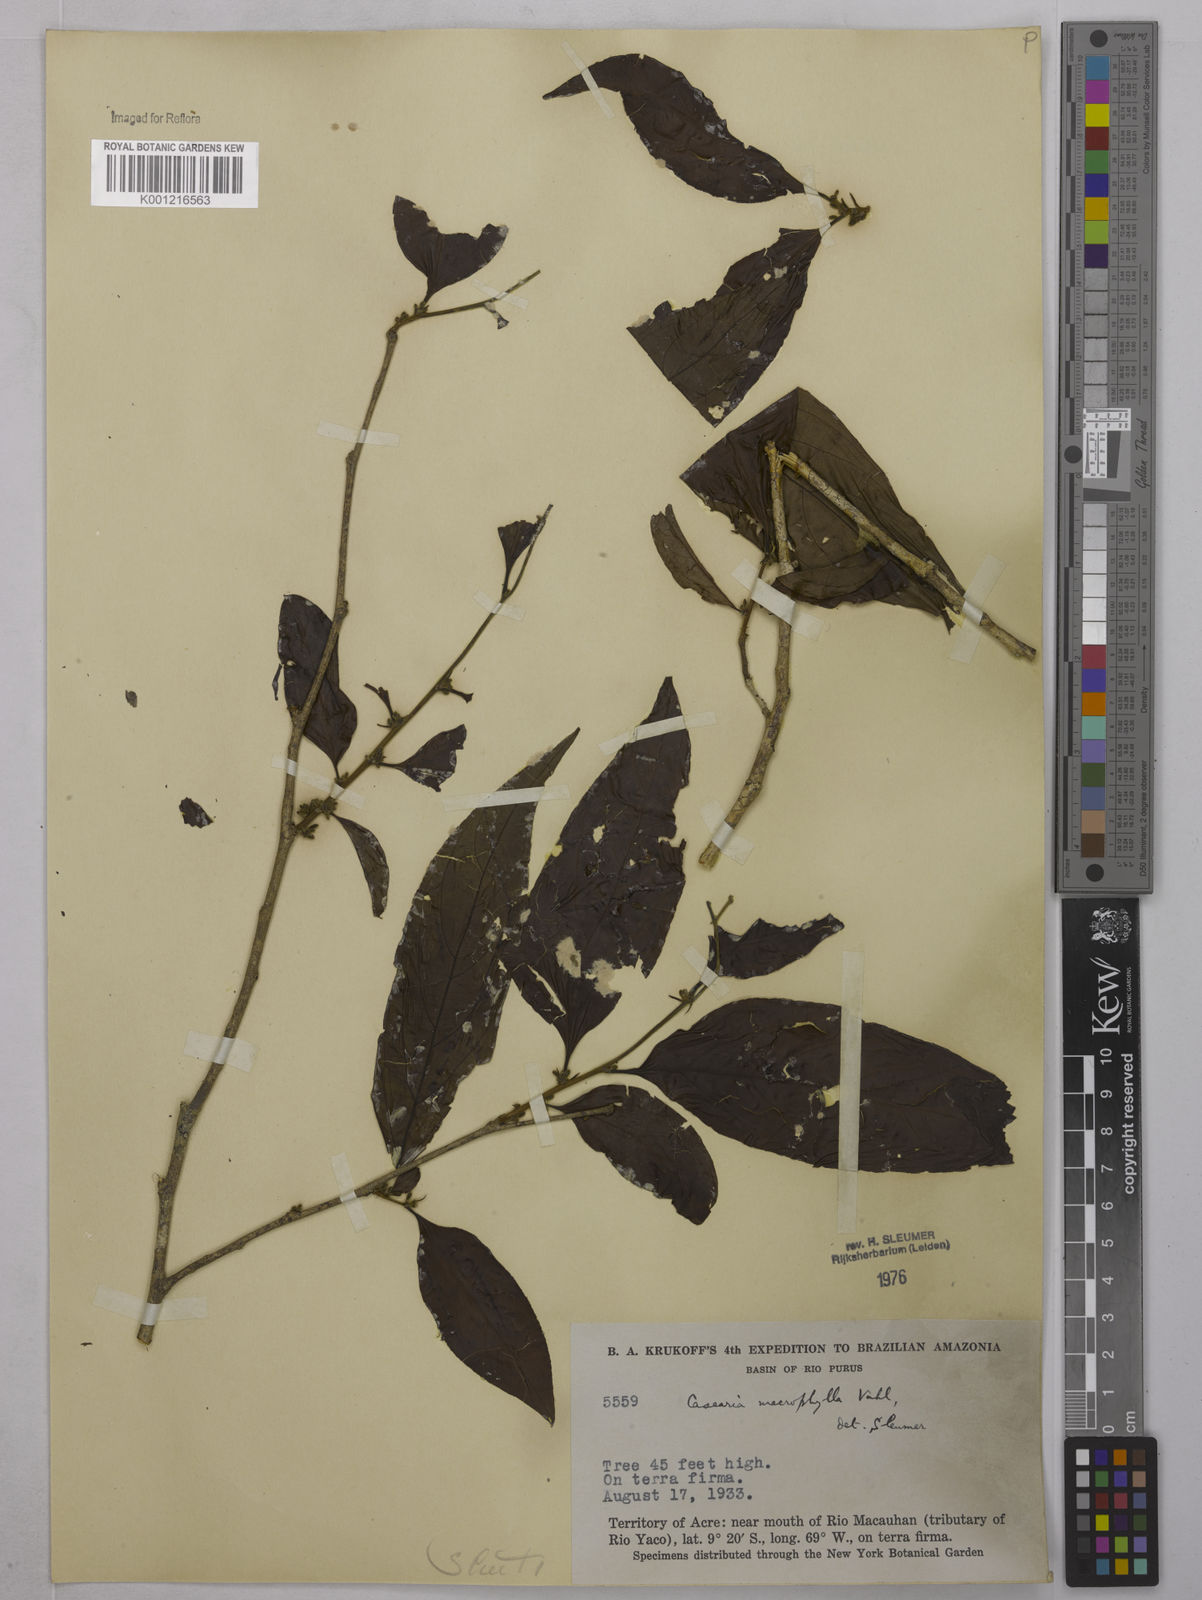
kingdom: Plantae
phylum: Tracheophyta
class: Magnoliopsida
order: Malpighiales
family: Salicaceae
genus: Casearia
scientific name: Casearia pitumba
